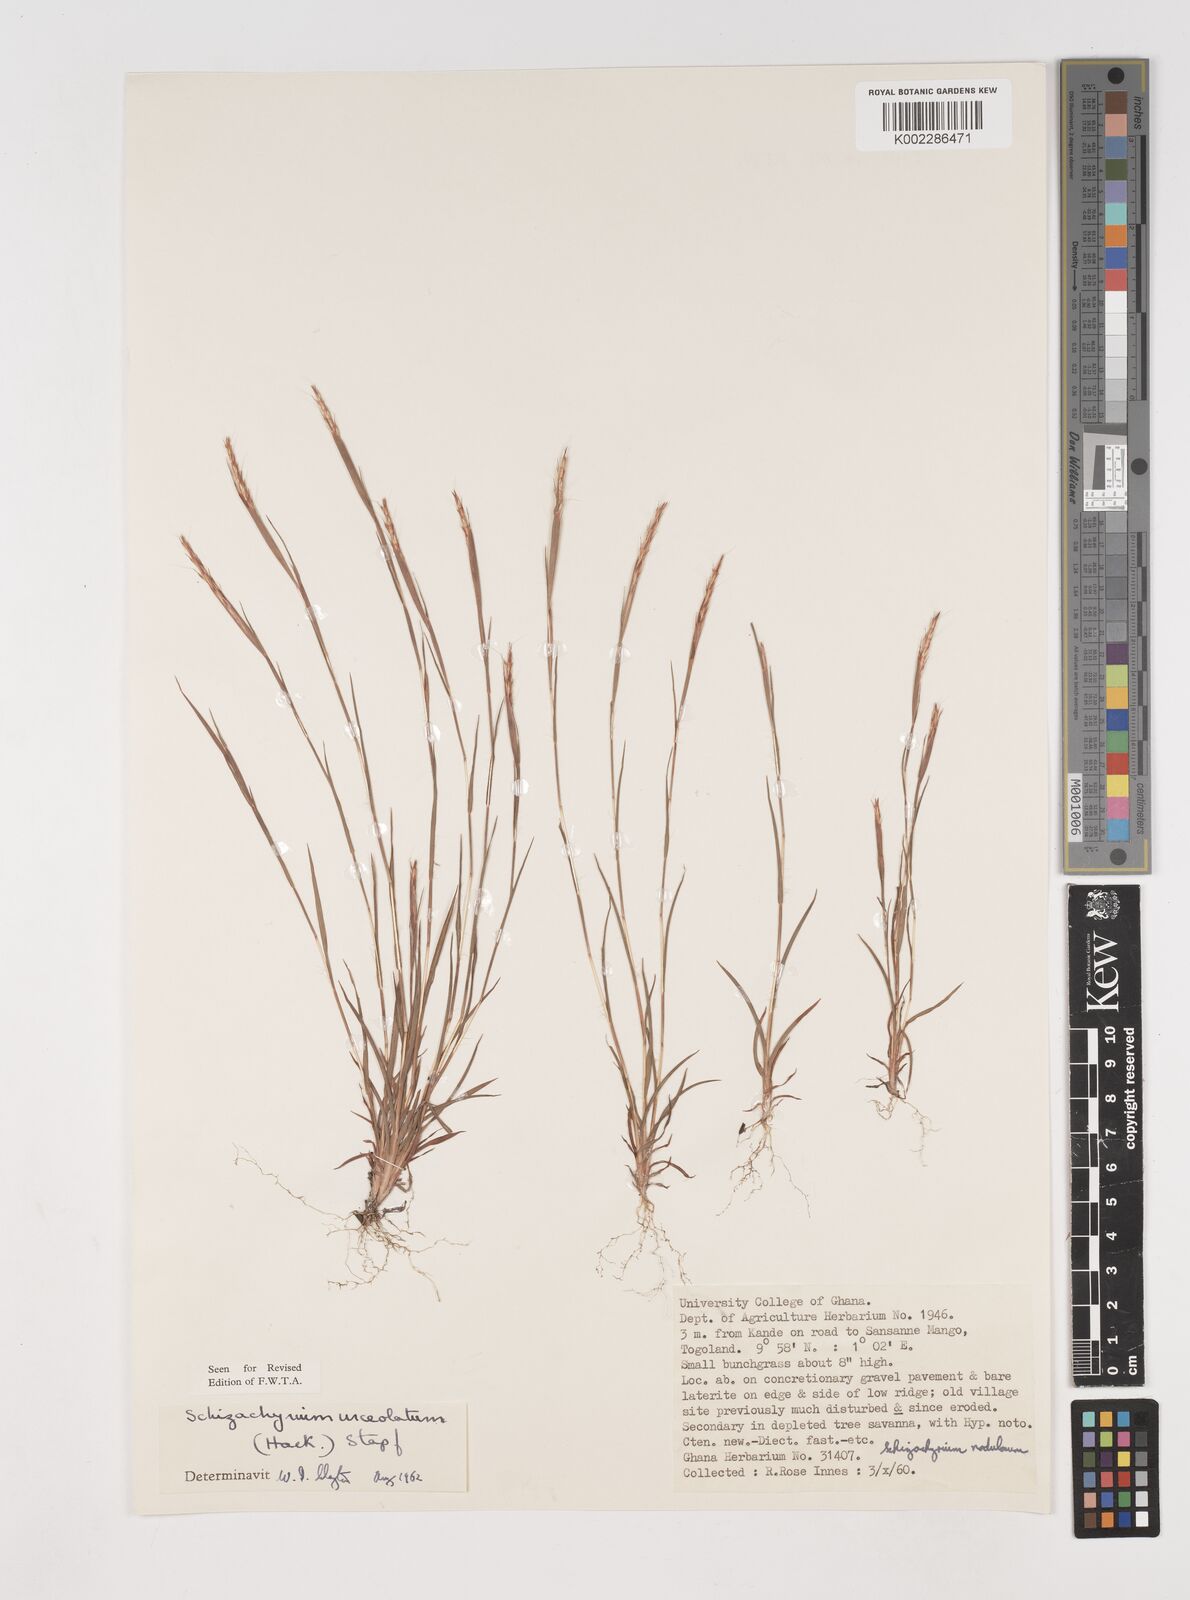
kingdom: Plantae
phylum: Tracheophyta
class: Liliopsida
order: Poales
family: Poaceae
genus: Schizachyrium
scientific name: Schizachyrium urceolatum
